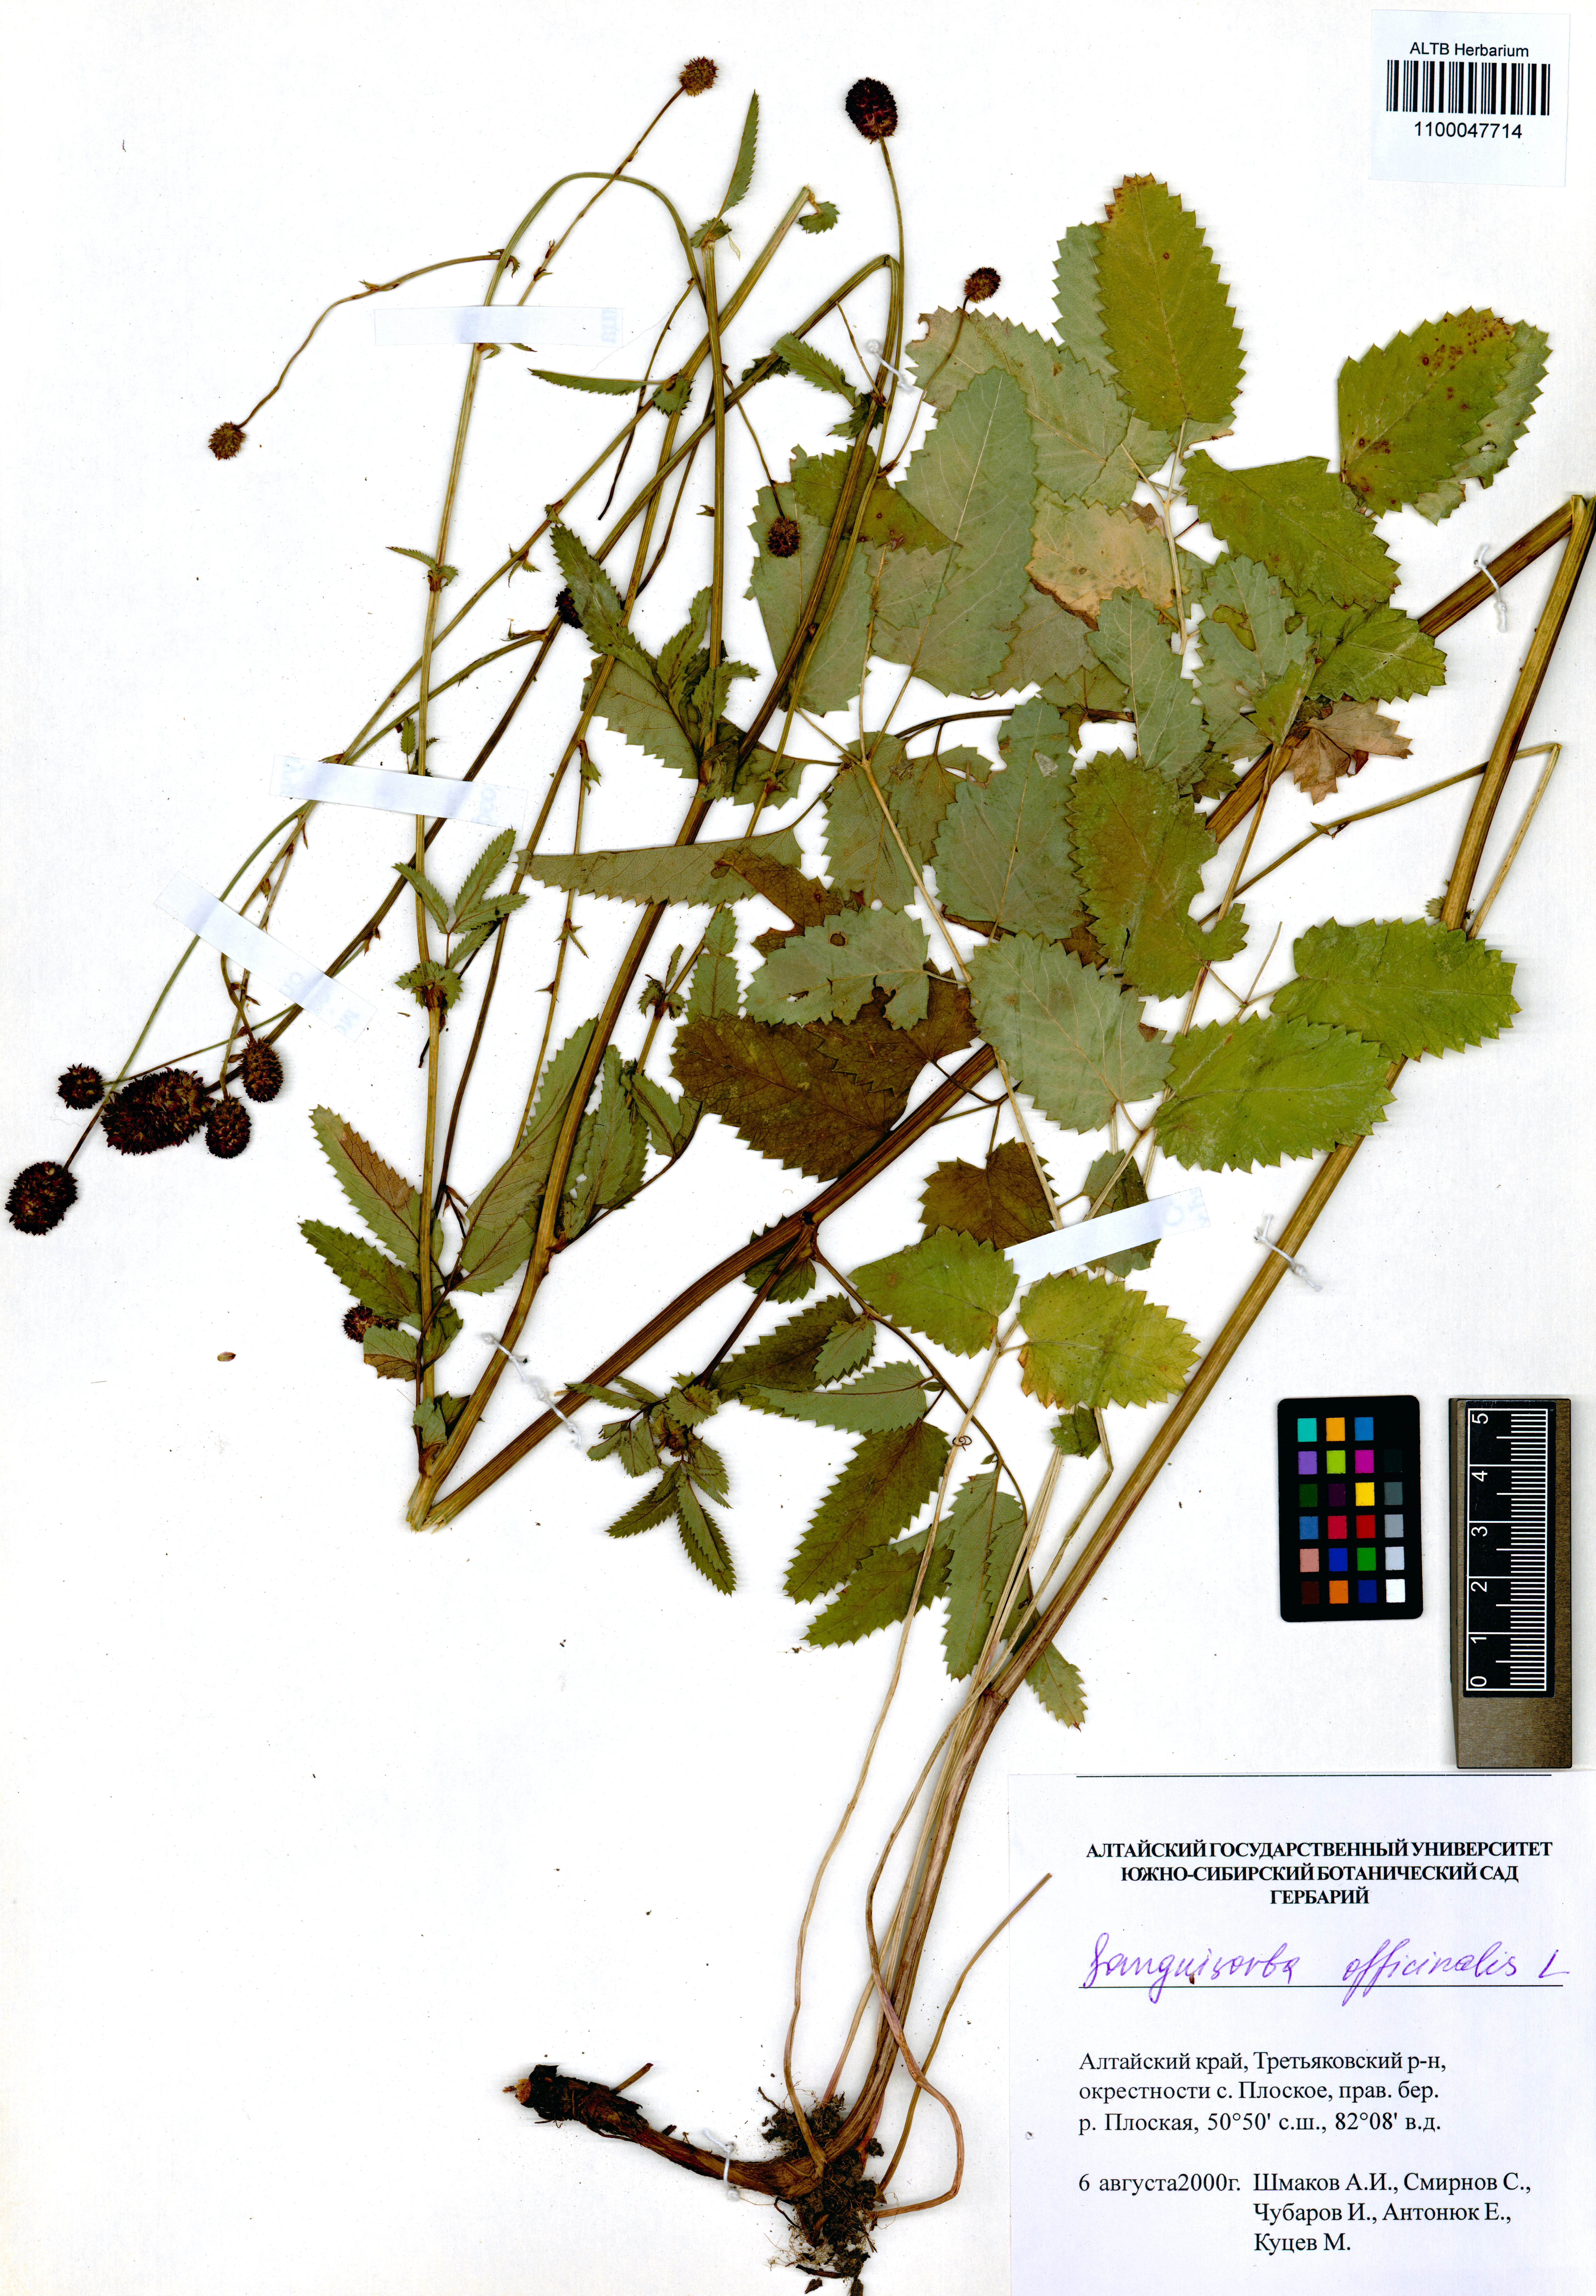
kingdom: Plantae
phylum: Tracheophyta
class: Magnoliopsida
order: Rosales
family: Rosaceae
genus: Sanguisorba
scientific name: Sanguisorba officinalis
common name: Great burnet
